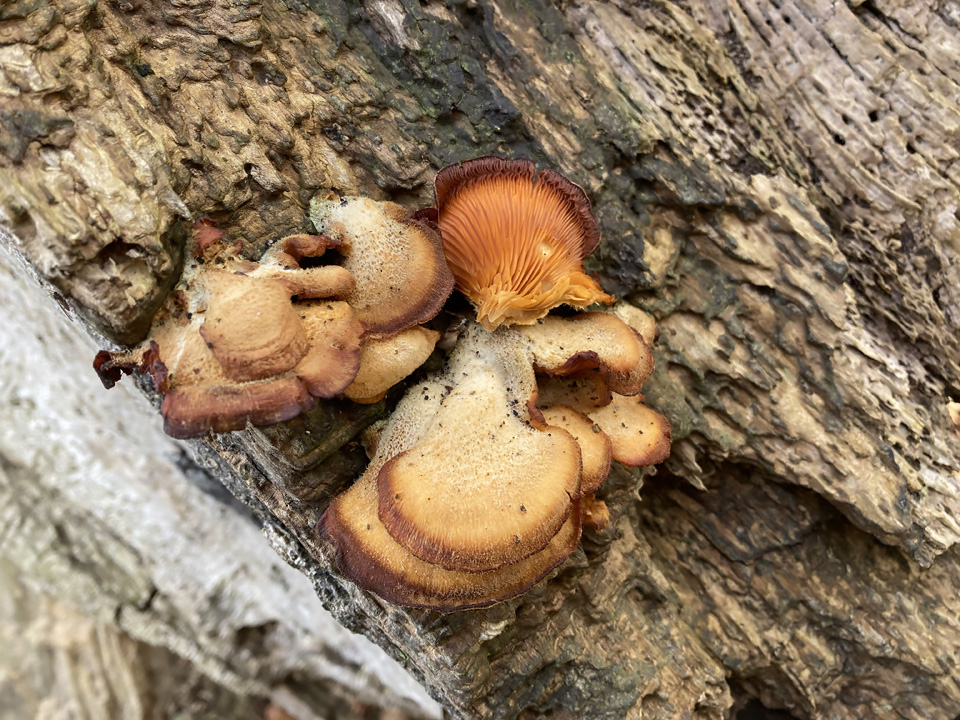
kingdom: Fungi
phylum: Basidiomycota
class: Agaricomycetes
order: Agaricales
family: Phyllotopsidaceae
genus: Phyllotopsis
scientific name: Phyllotopsis nidulans
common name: okkerblad
